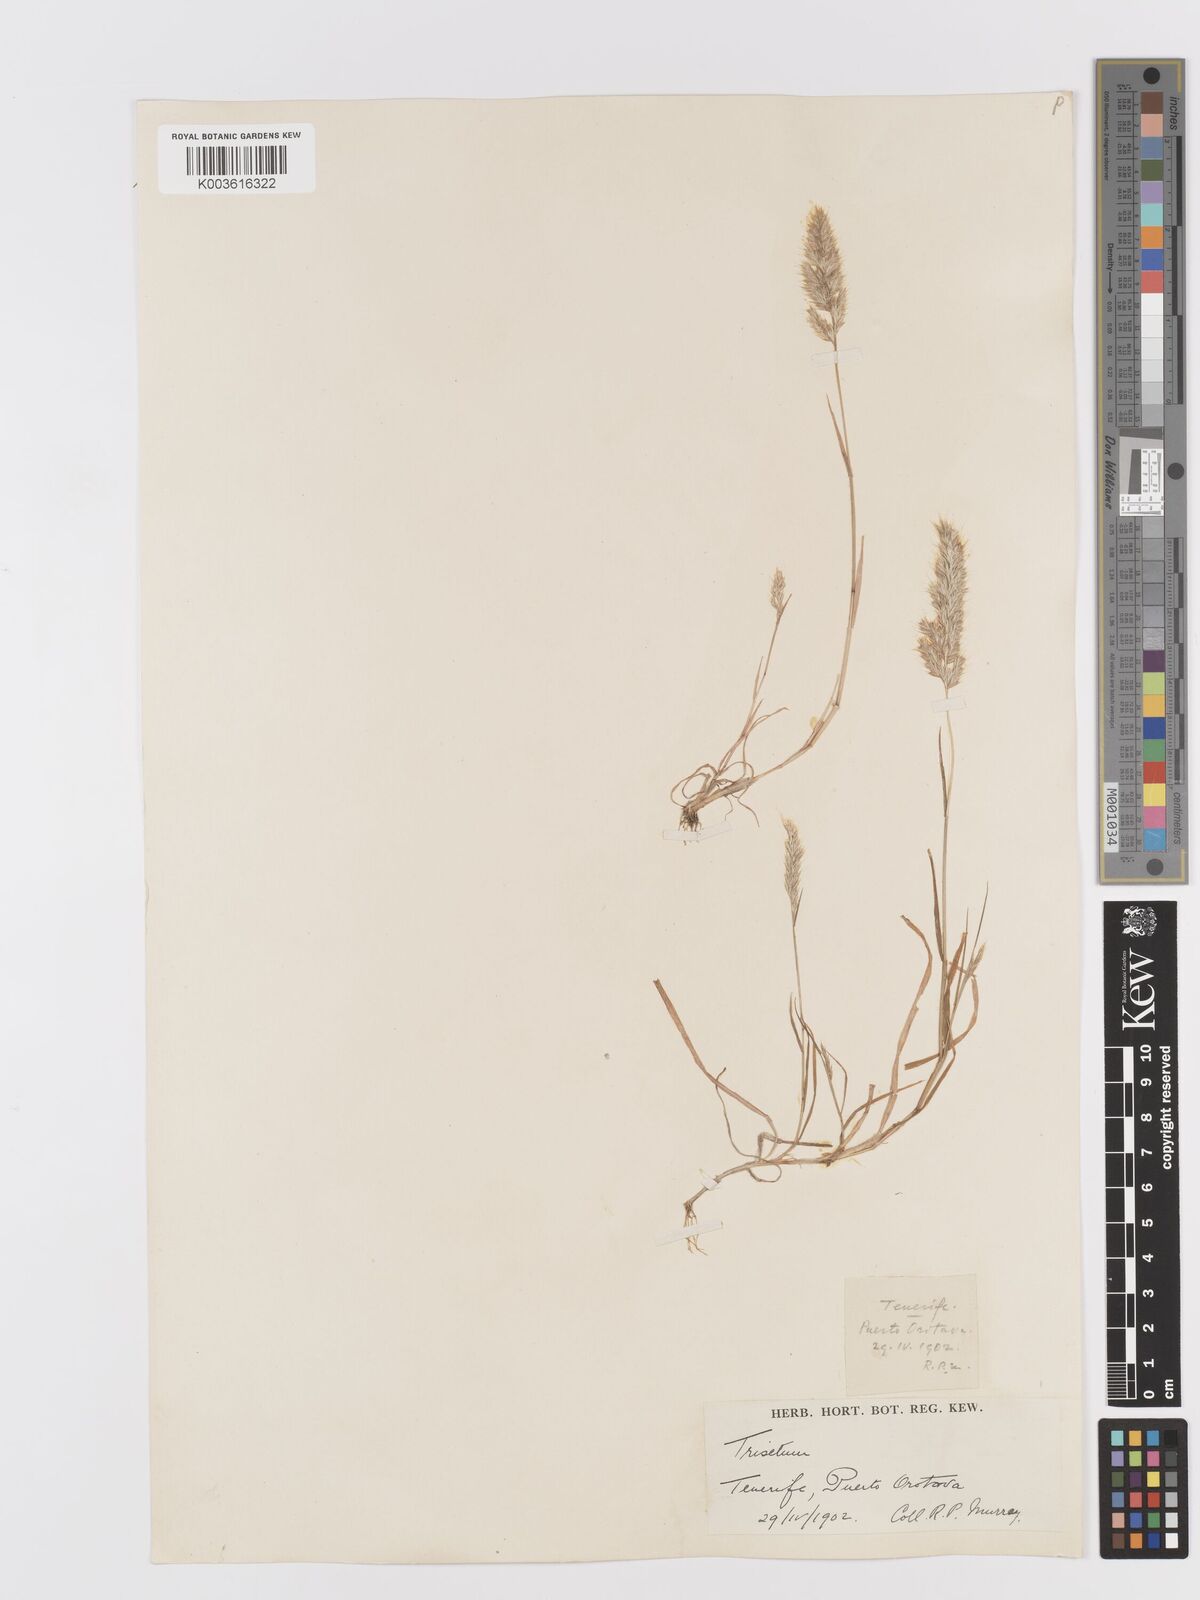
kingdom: Plantae
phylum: Tracheophyta
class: Liliopsida
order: Poales
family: Poaceae
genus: Trisetaria
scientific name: Trisetaria panicea
